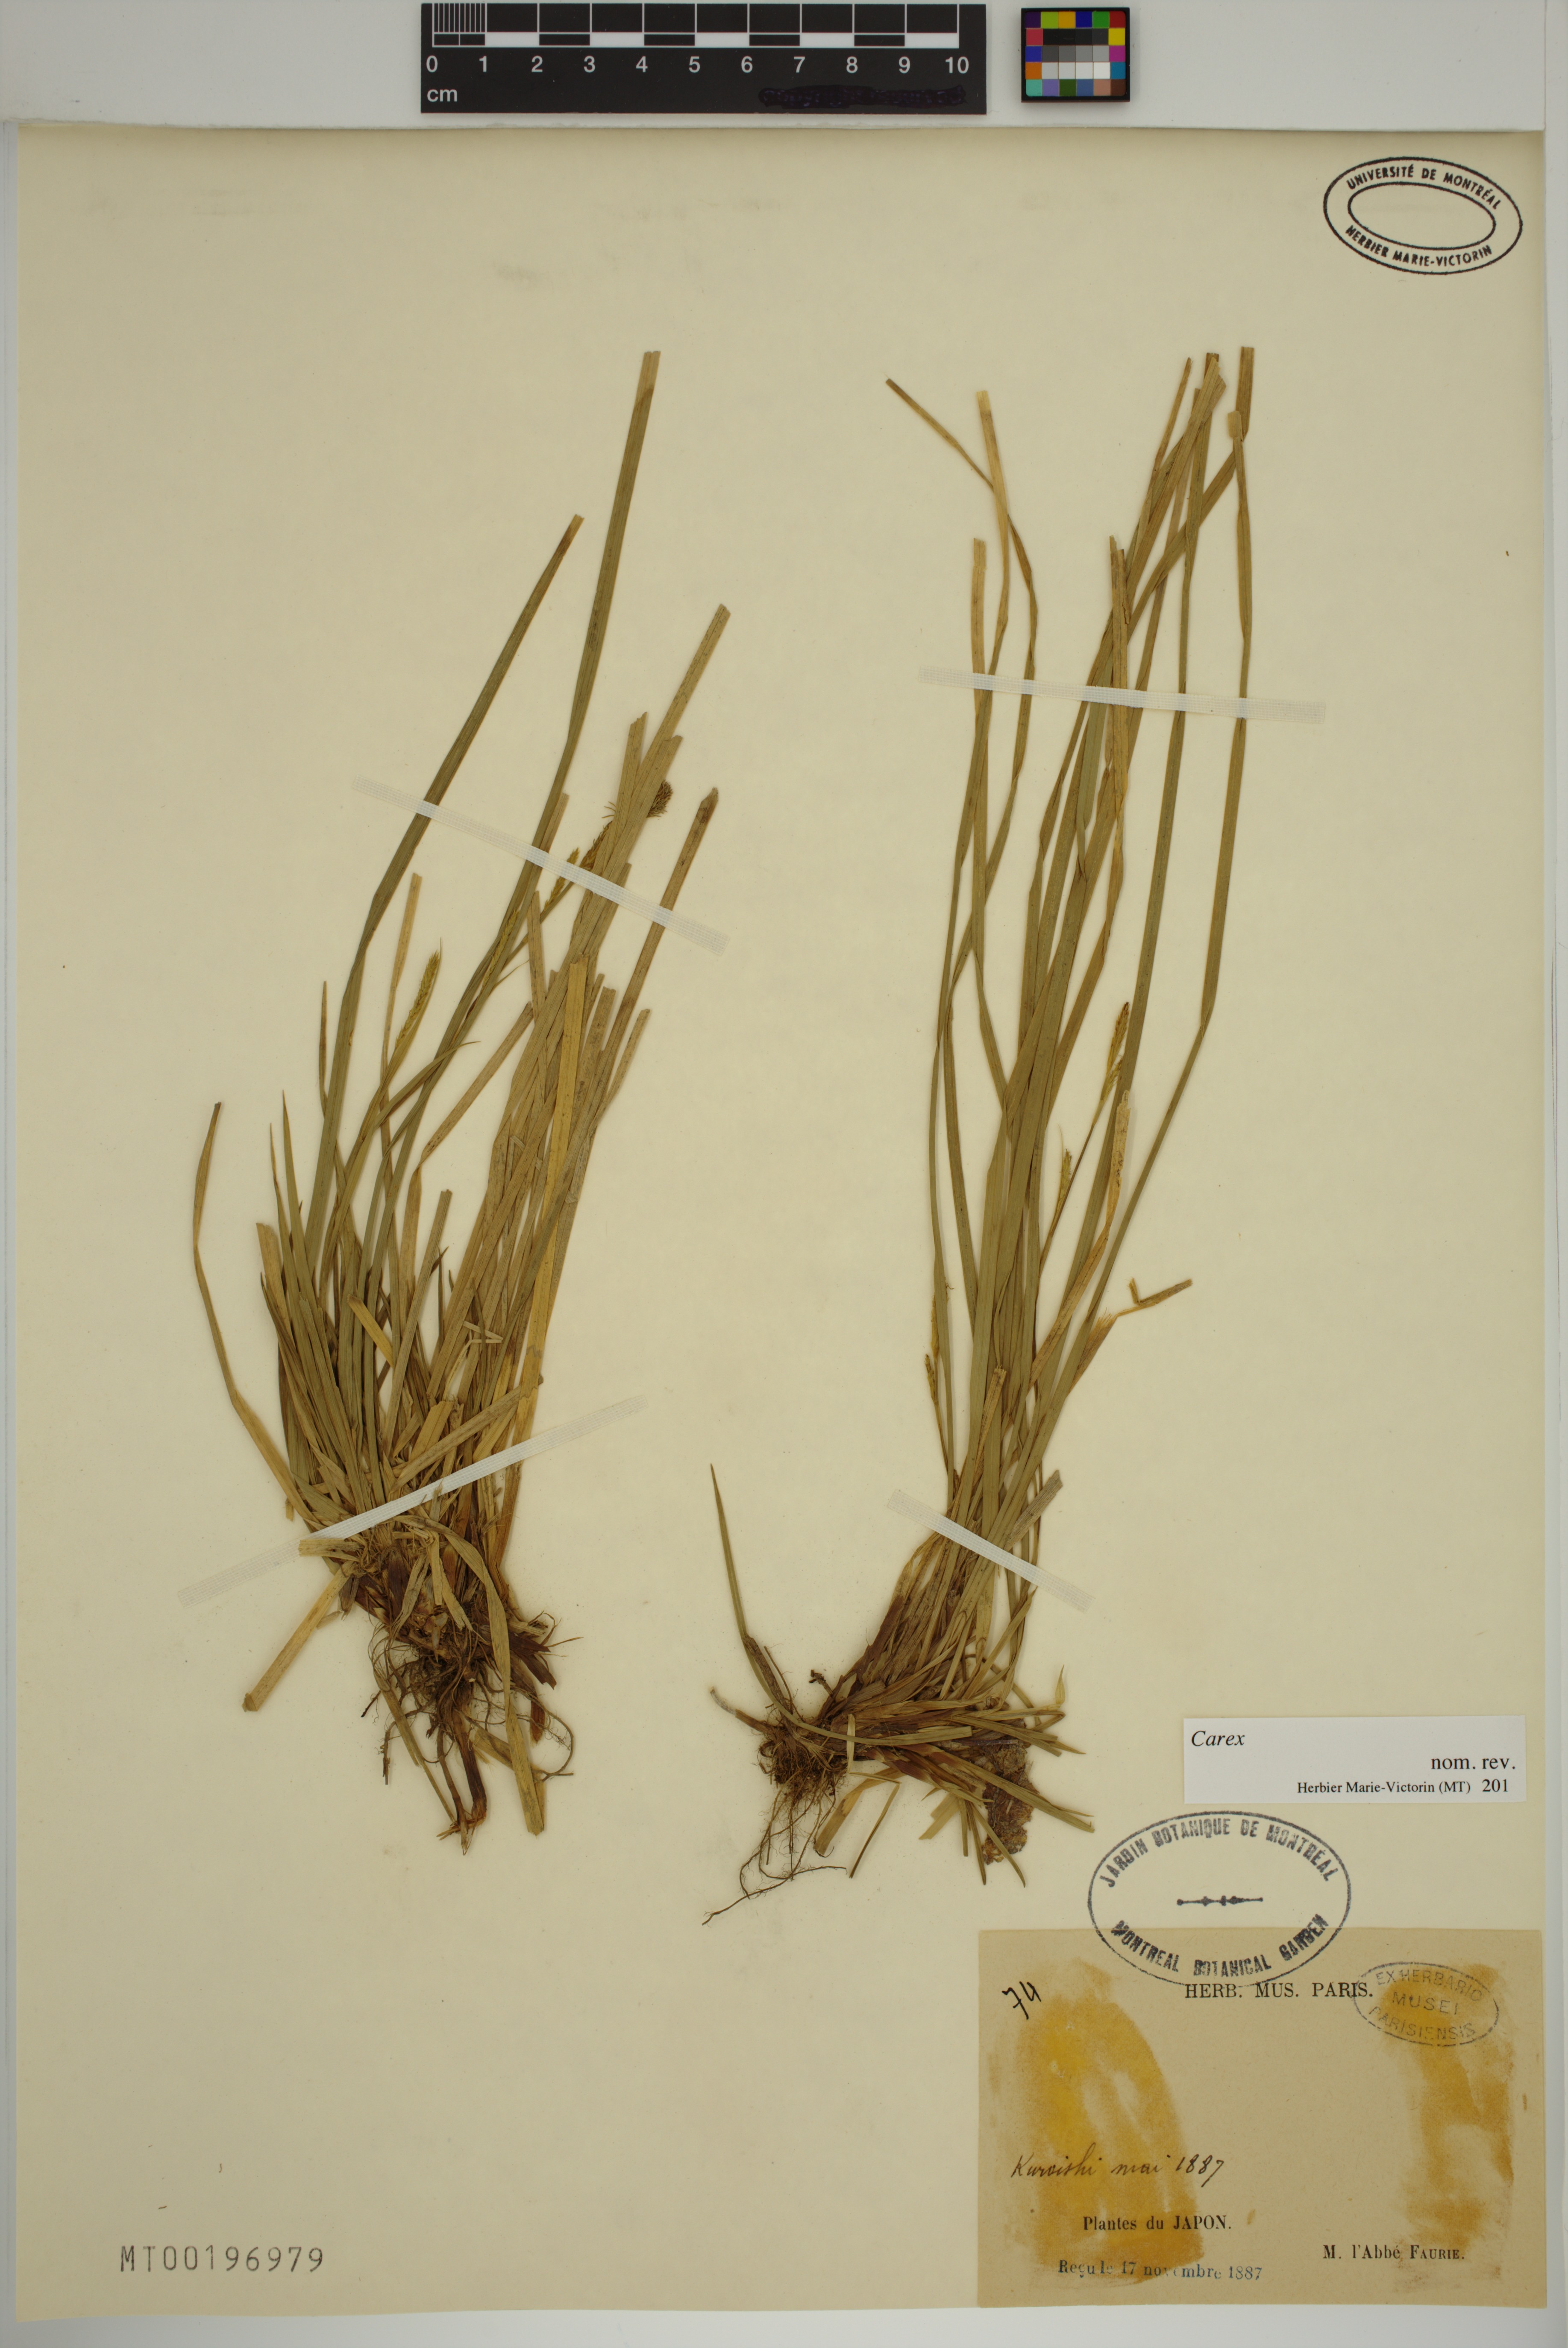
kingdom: Plantae
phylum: Tracheophyta
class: Liliopsida
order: Poales
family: Cyperaceae
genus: Carex
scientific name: Carex
